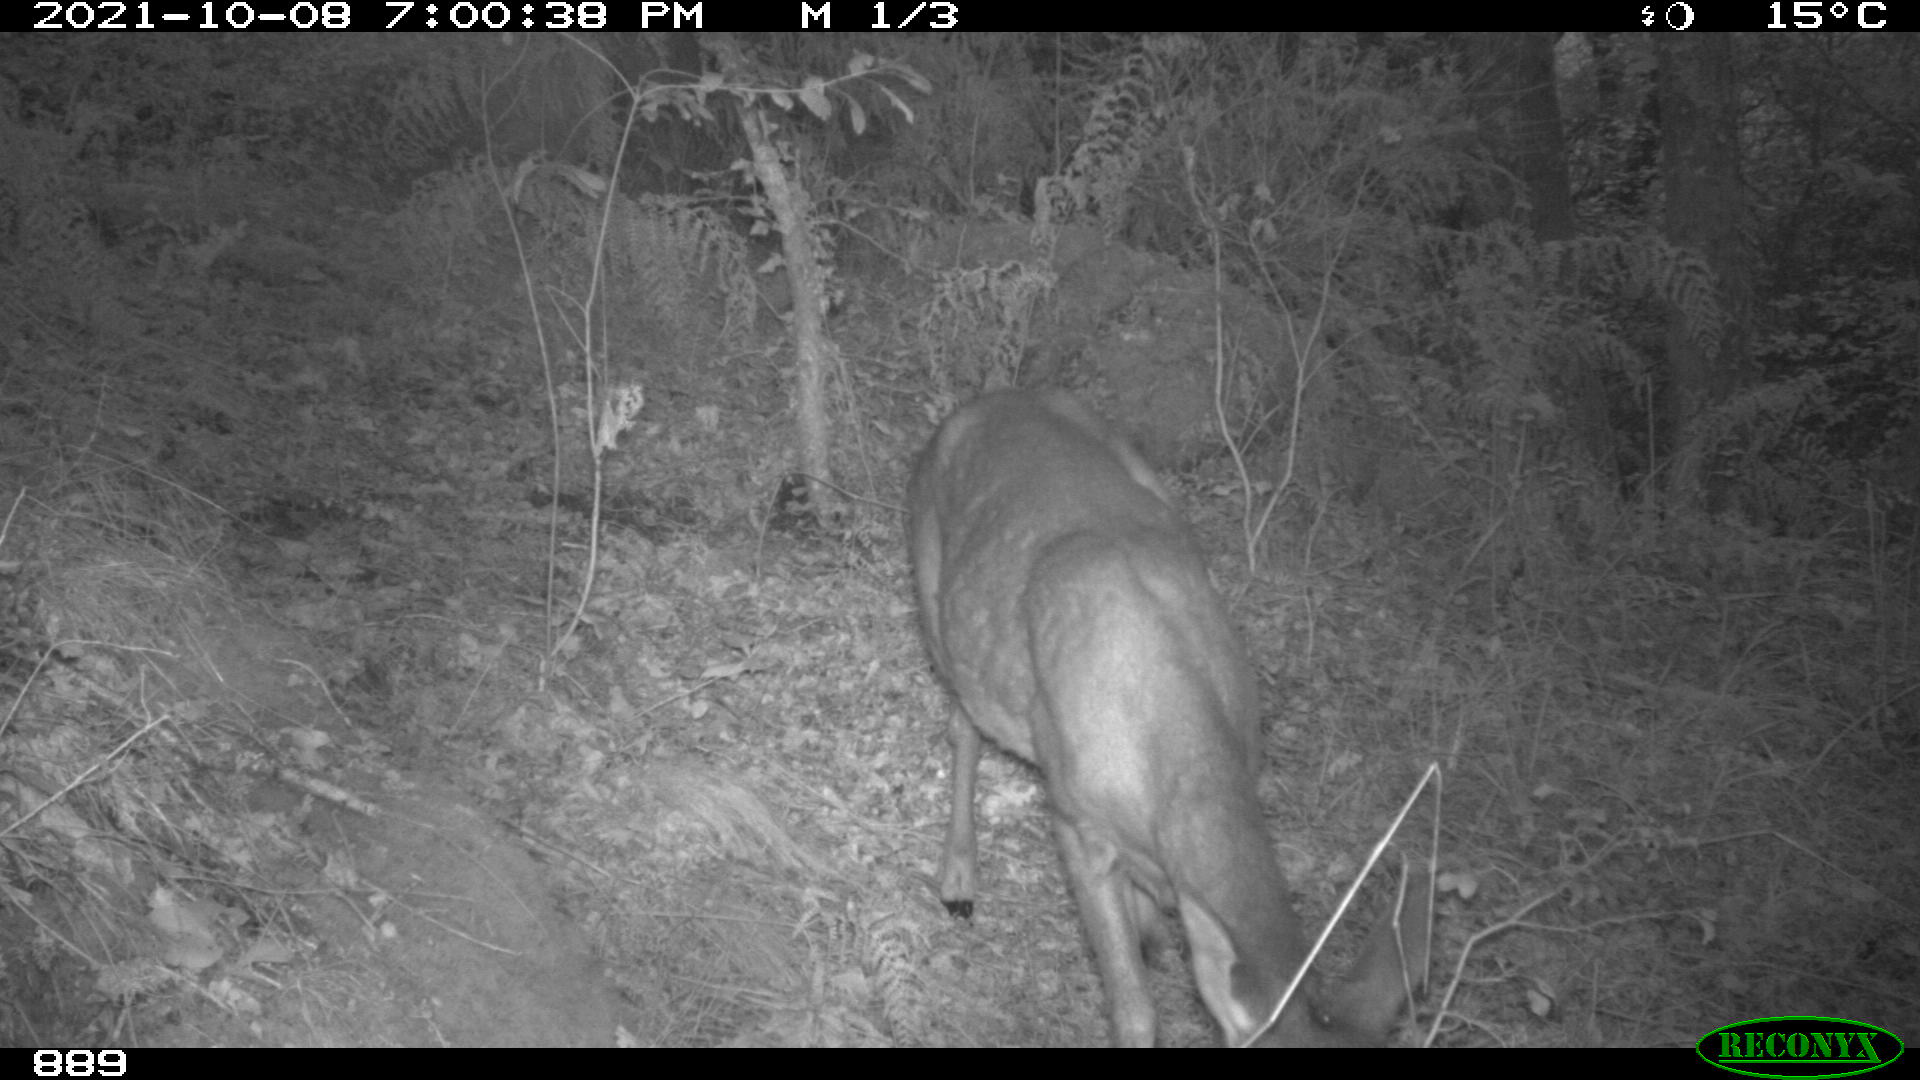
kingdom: Animalia
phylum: Chordata
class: Mammalia
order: Artiodactyla
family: Cervidae
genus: Capreolus
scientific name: Capreolus capreolus
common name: Western roe deer
